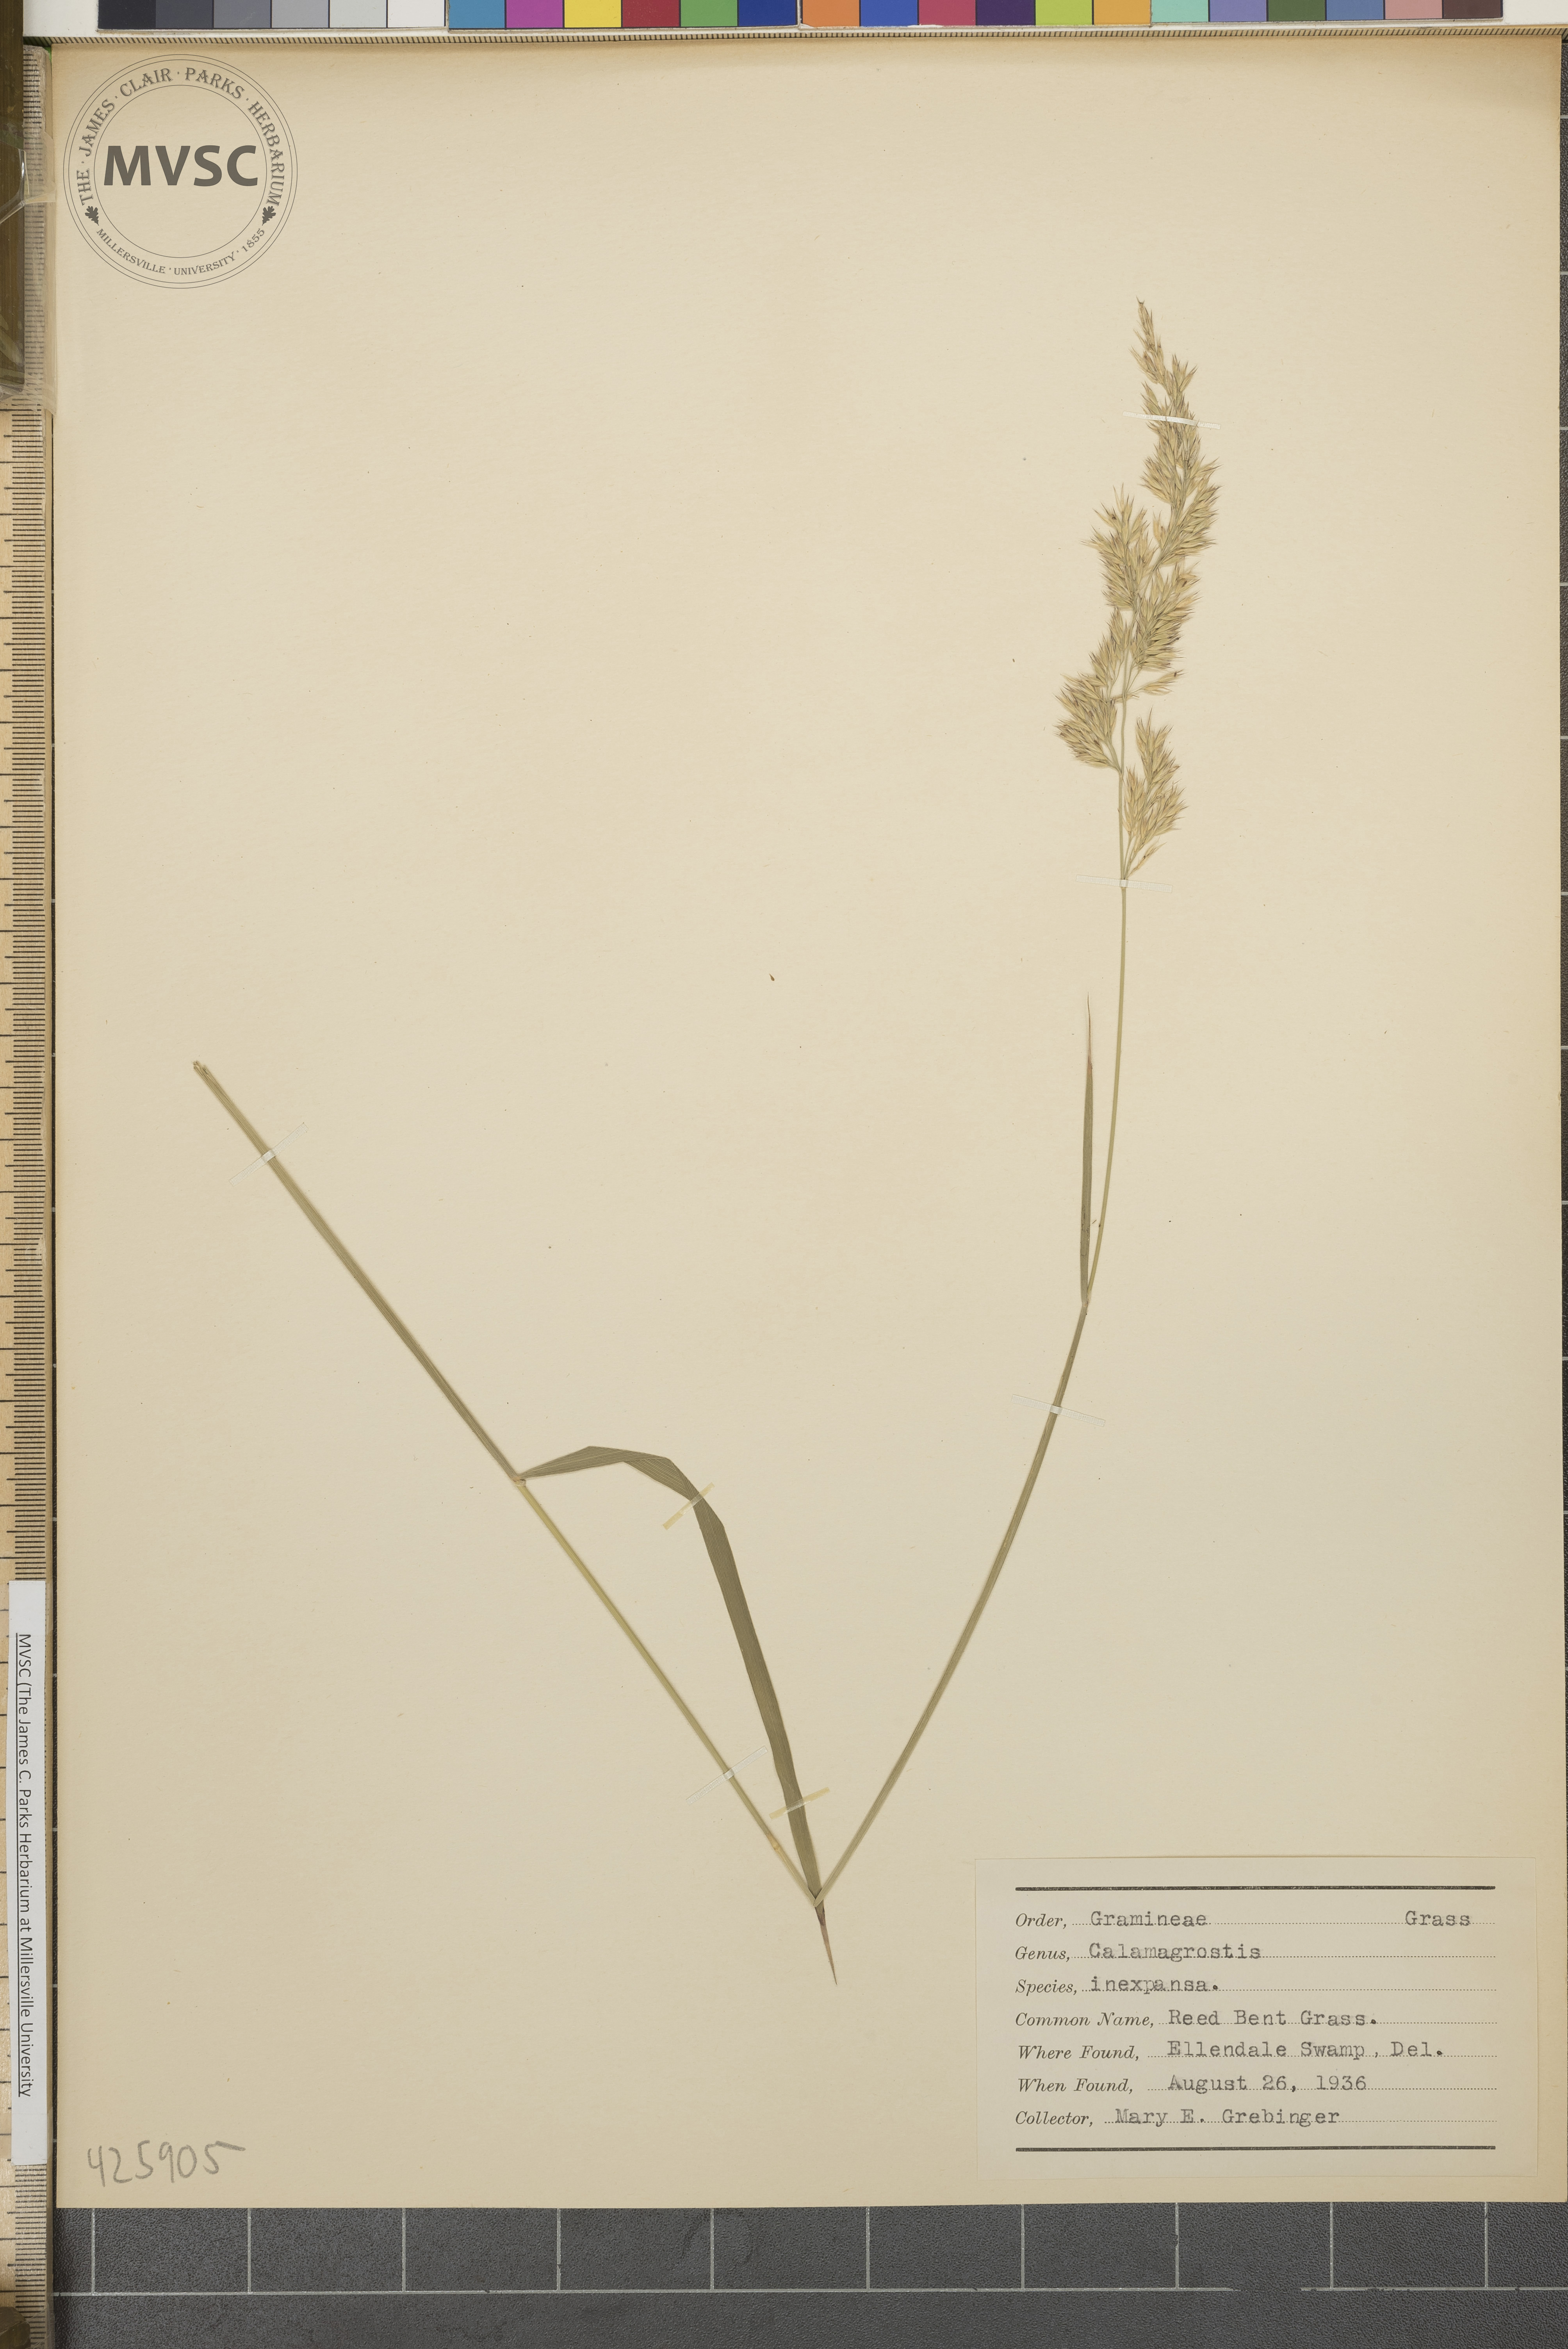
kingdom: Plantae
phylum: Tracheophyta
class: Liliopsida
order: Poales
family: Poaceae
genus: Calamagrostis
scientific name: Calamagrostis inexpansa
